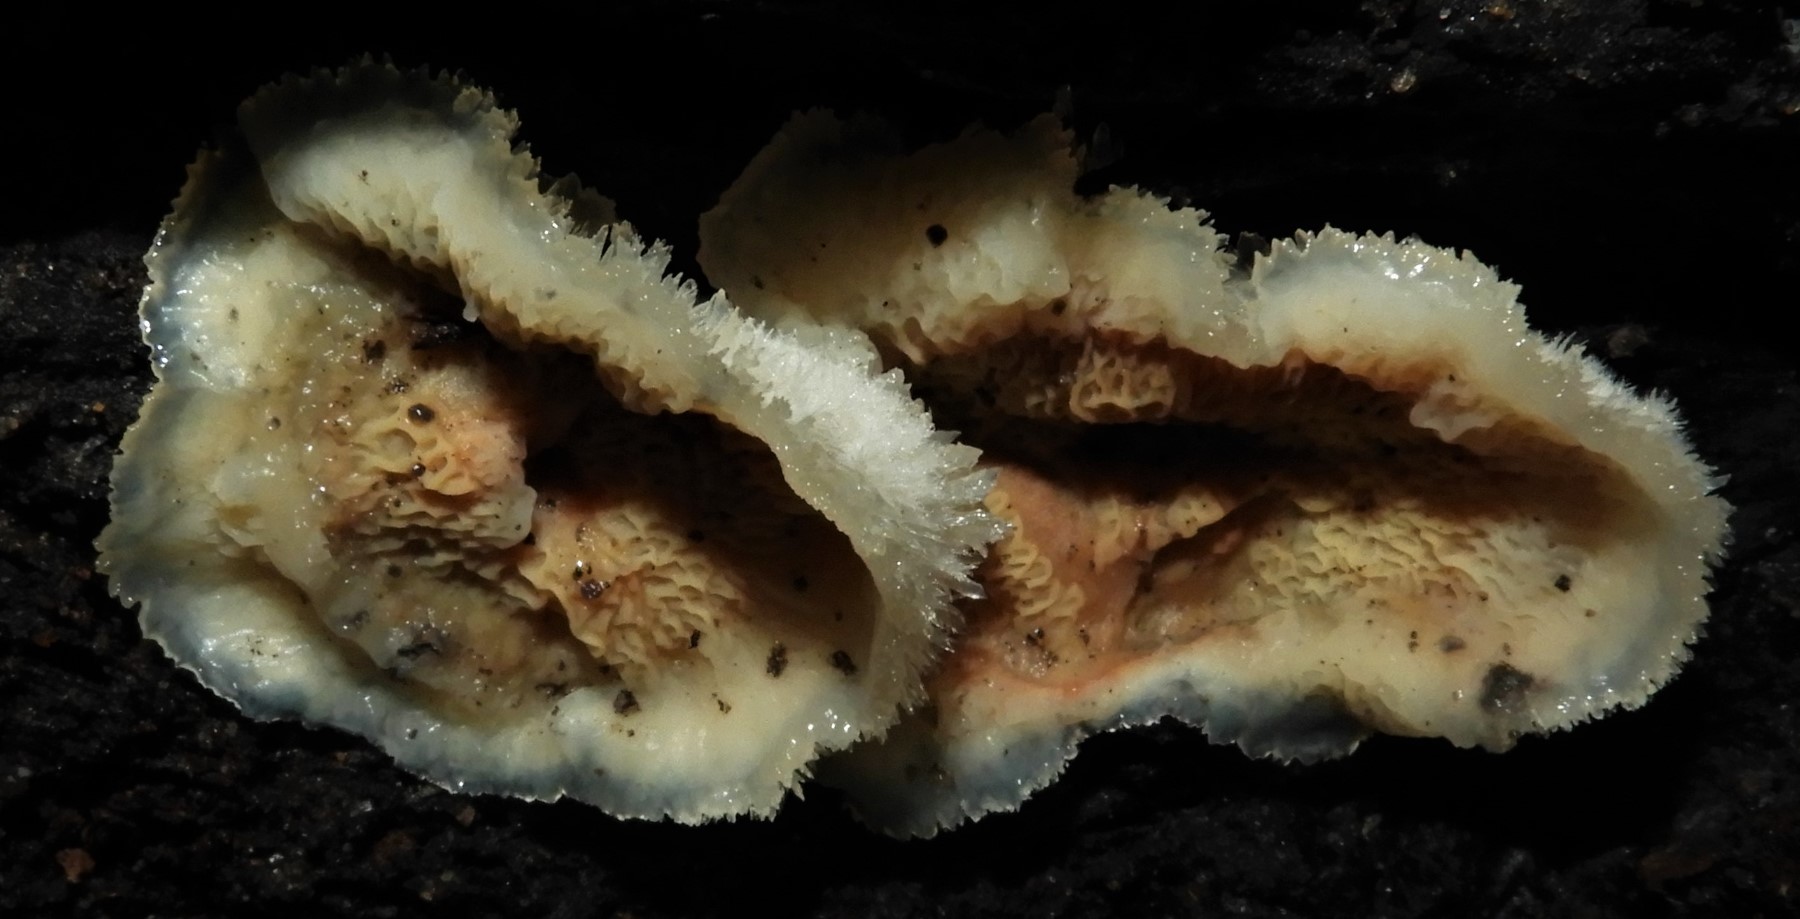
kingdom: Fungi
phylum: Basidiomycota
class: Agaricomycetes
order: Polyporales
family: Meruliaceae
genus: Phlebia
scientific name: Phlebia tremellosa
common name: bævrende åresvamp
